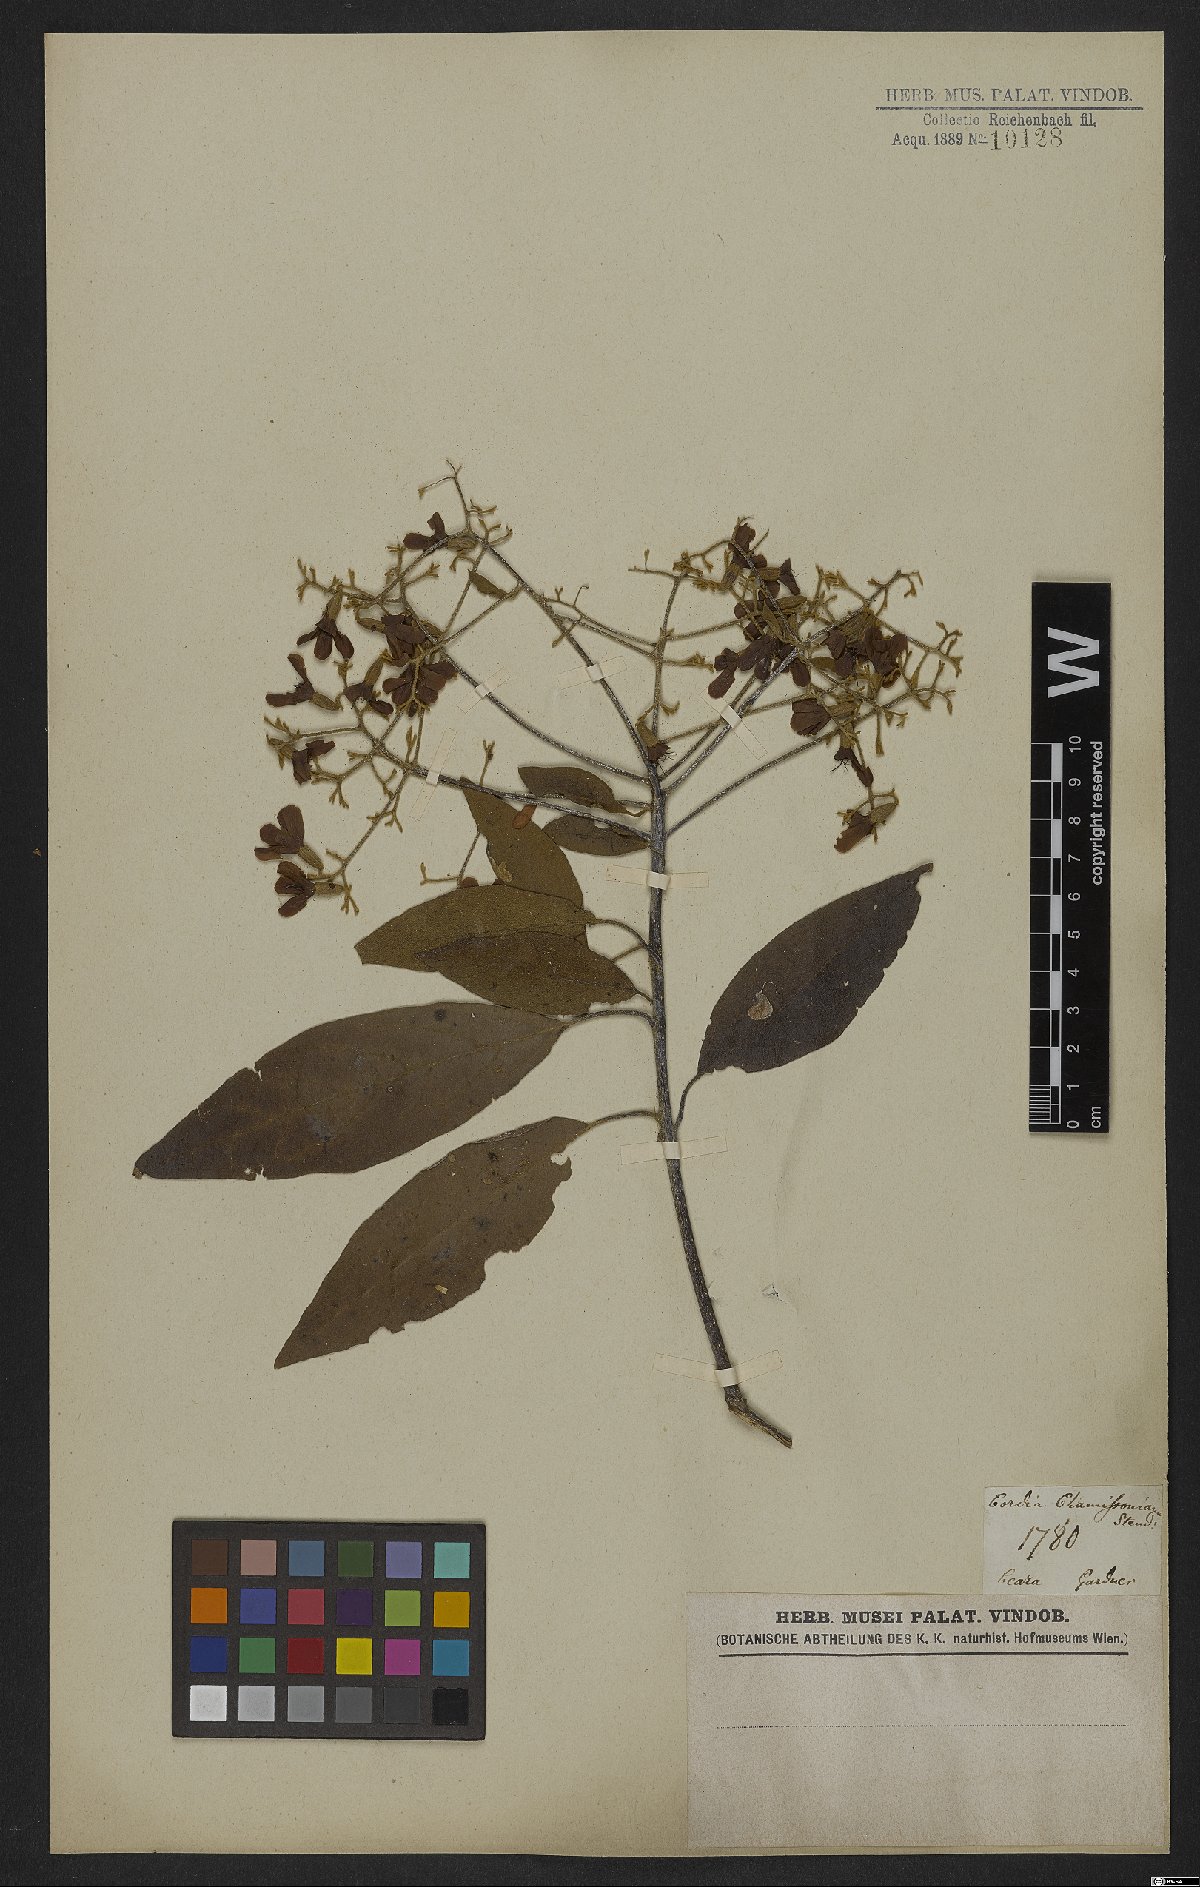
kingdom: Plantae
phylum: Tracheophyta
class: Magnoliopsida
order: Boraginales
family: Cordiaceae
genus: Cordia
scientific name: Cordia chamissoniana
